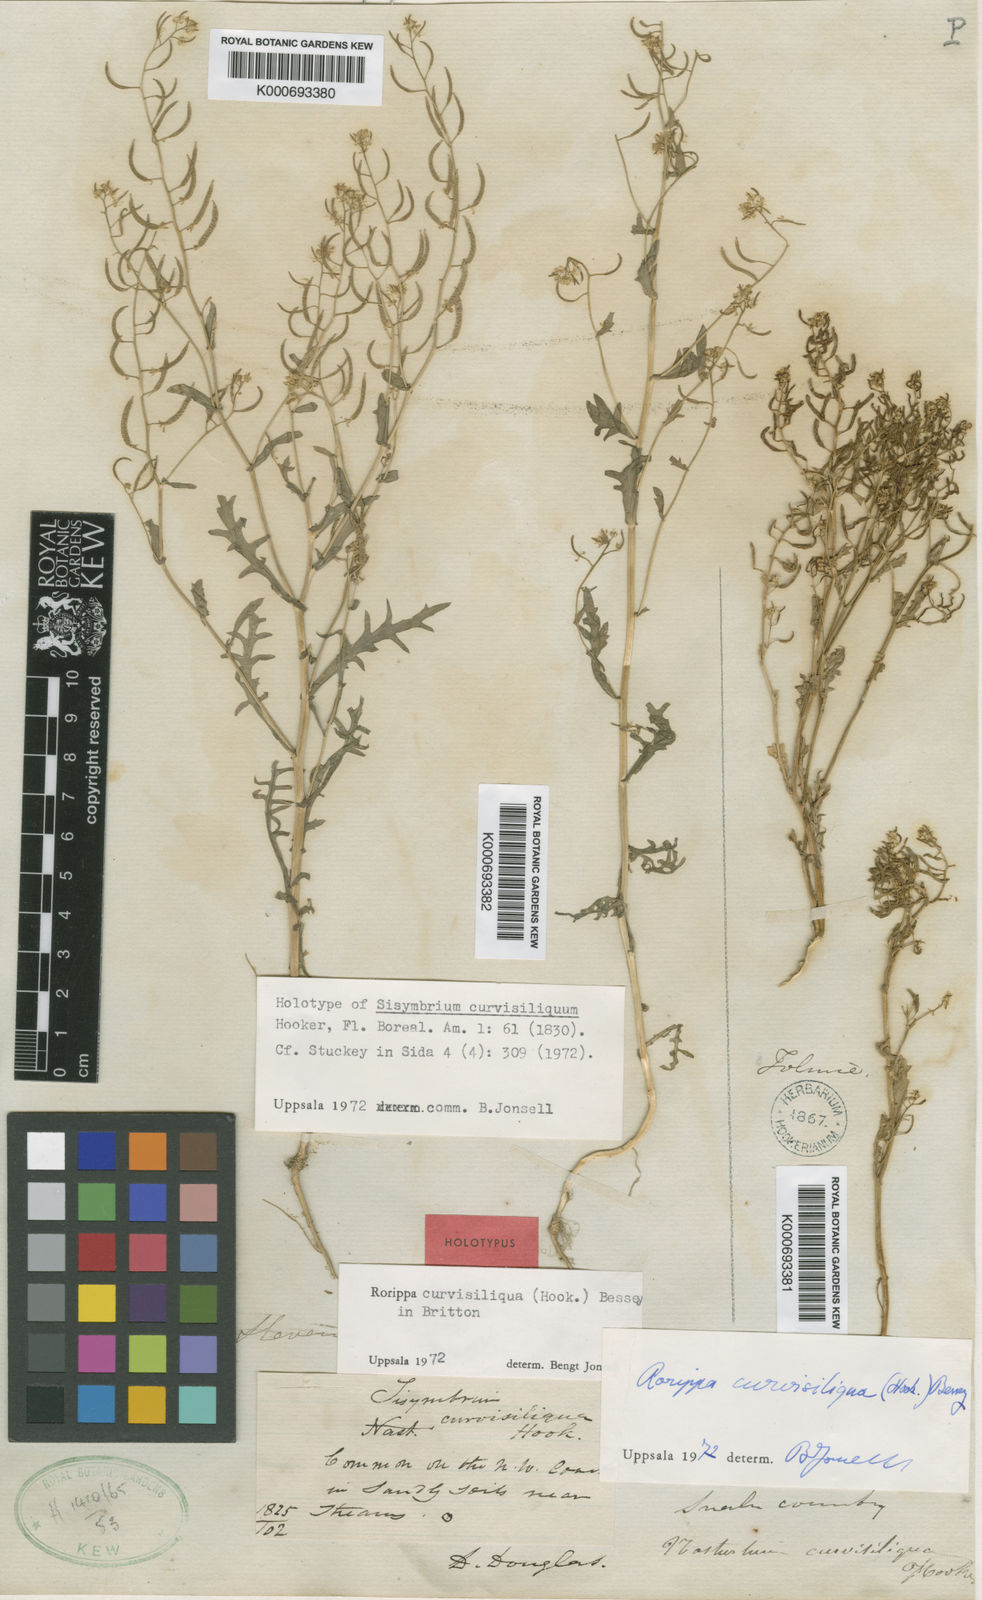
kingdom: Plantae
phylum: Tracheophyta
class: Magnoliopsida
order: Brassicales
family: Brassicaceae
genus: Rorippa
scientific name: Rorippa curvisiliqua
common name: Curve-pod yellow cress
